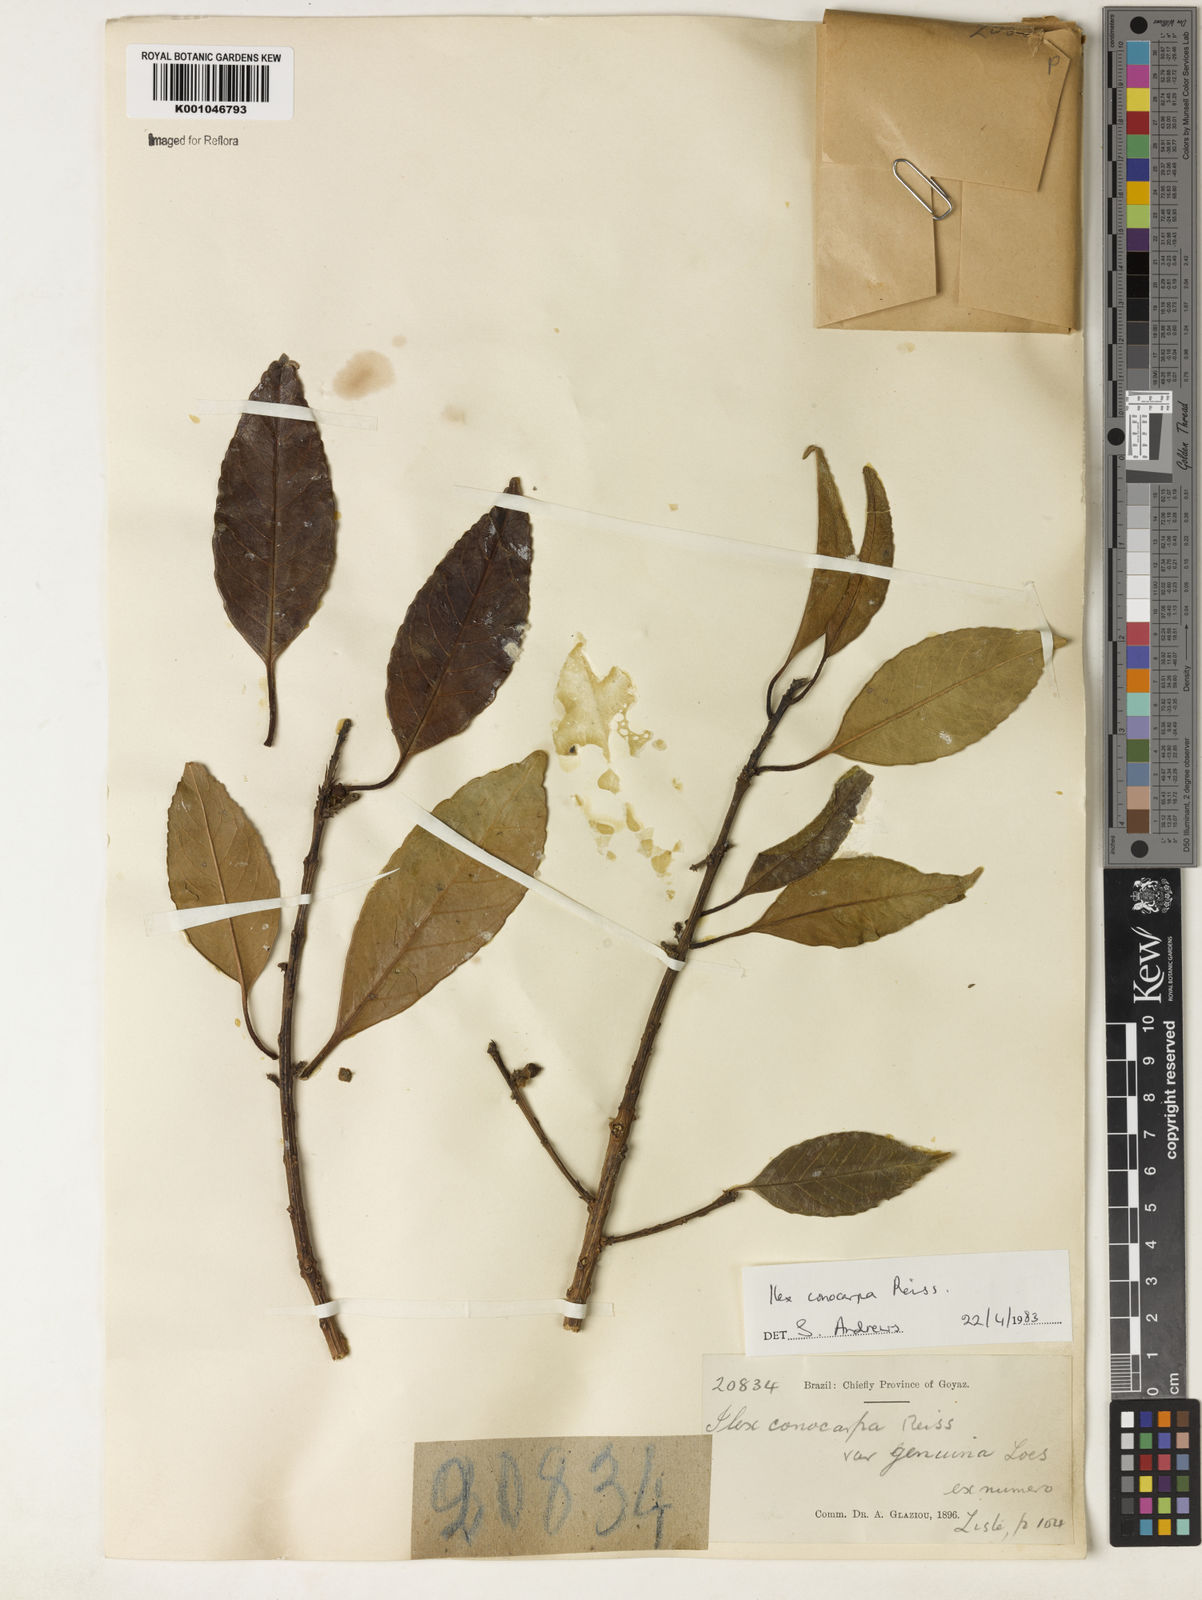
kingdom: Plantae
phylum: Tracheophyta
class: Magnoliopsida
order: Aquifoliales
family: Aquifoliaceae
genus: Ilex
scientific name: Ilex conocarpa
